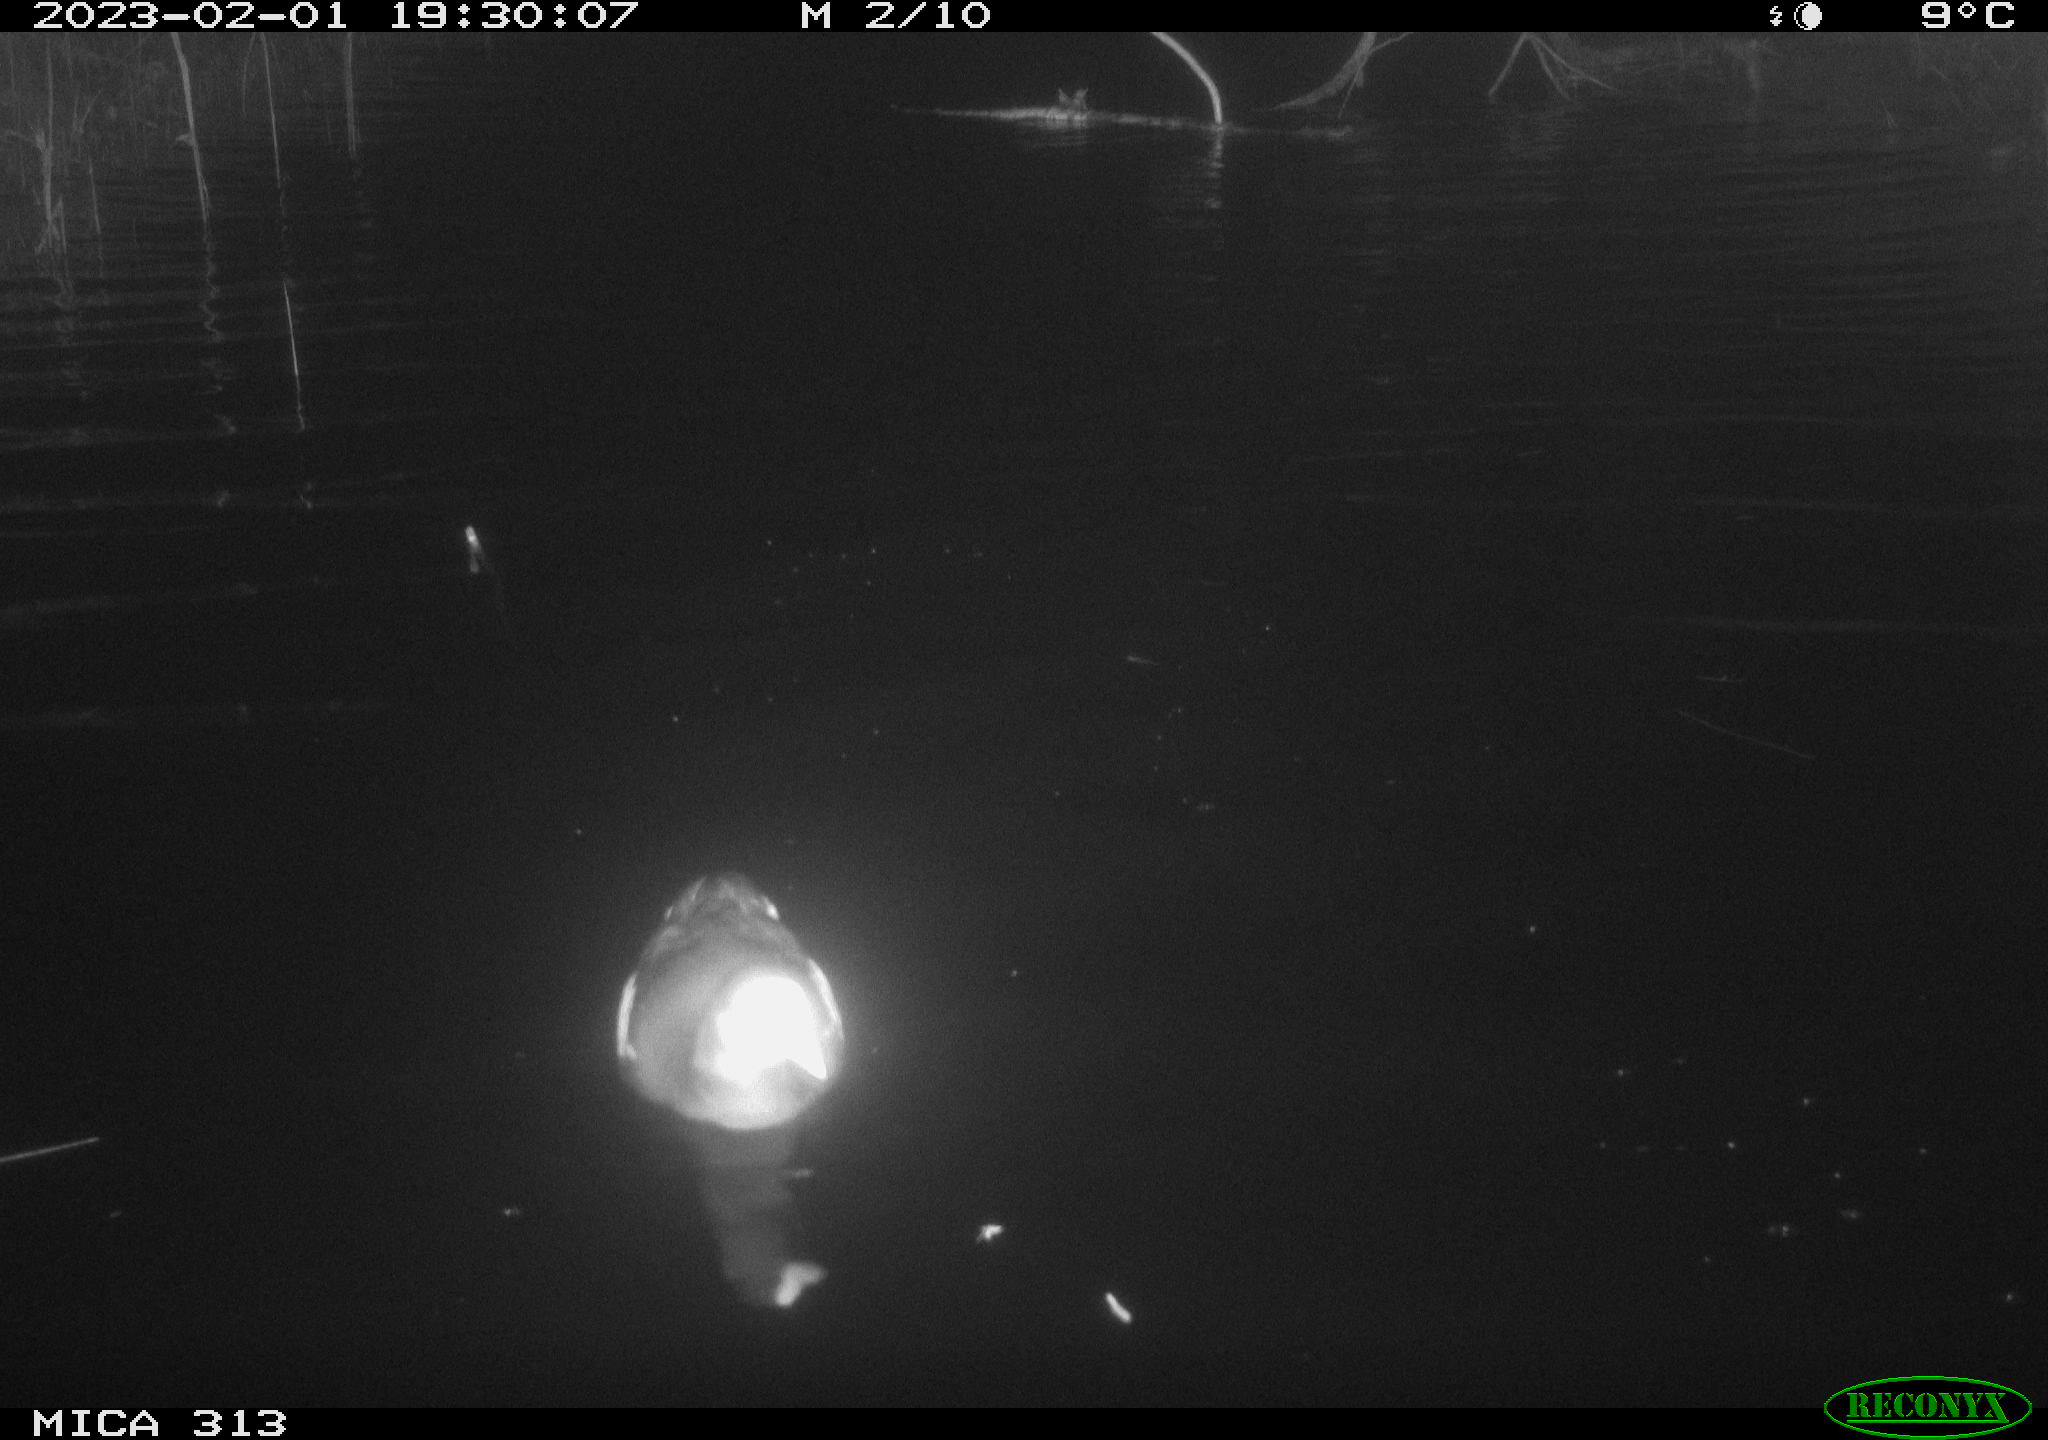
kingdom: Animalia
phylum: Chordata
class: Aves
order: Anseriformes
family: Anatidae
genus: Anas
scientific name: Anas
